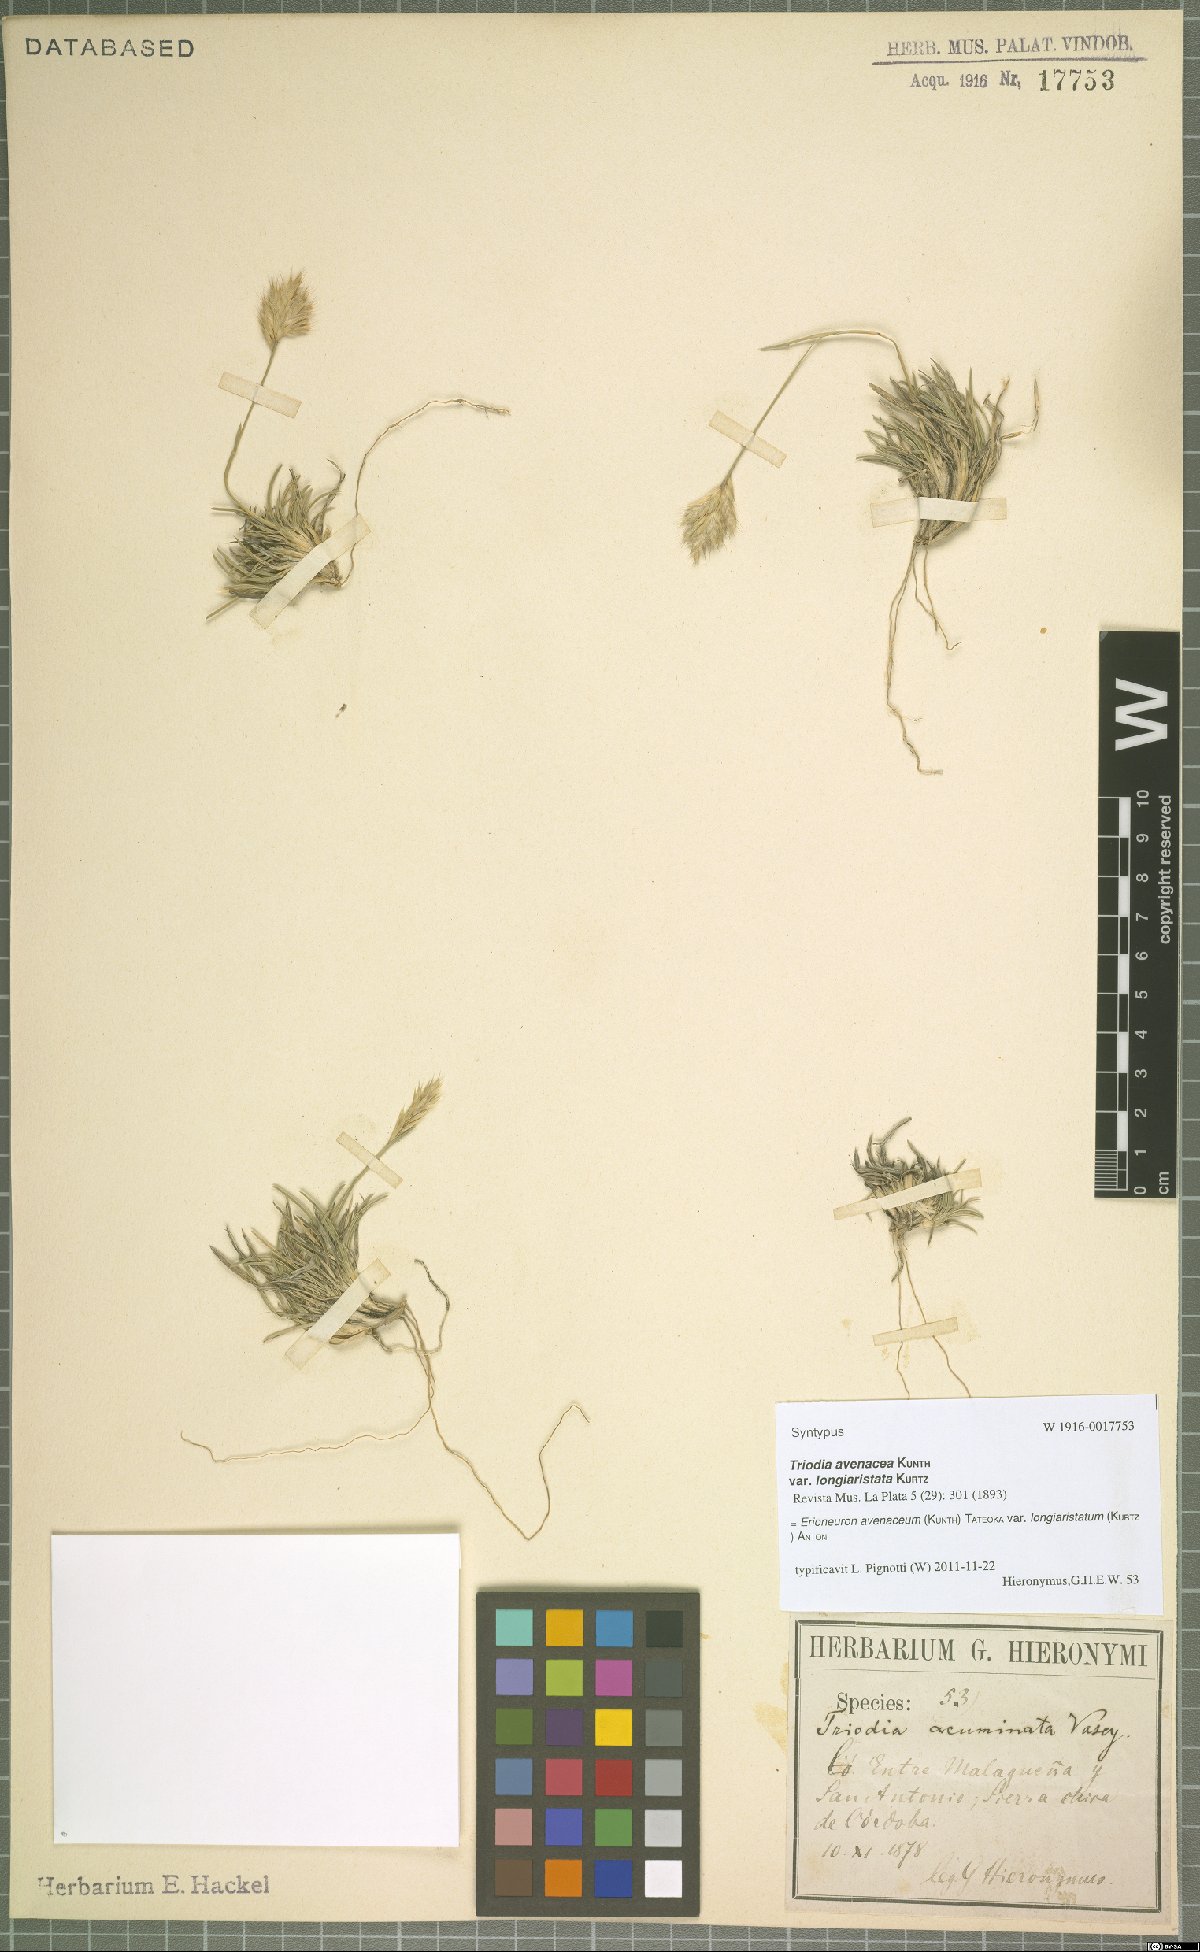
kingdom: Plantae
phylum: Tracheophyta
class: Liliopsida
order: Poales
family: Poaceae
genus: Erioneuron
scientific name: Erioneuron pilosum
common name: Hairy woolly grass
